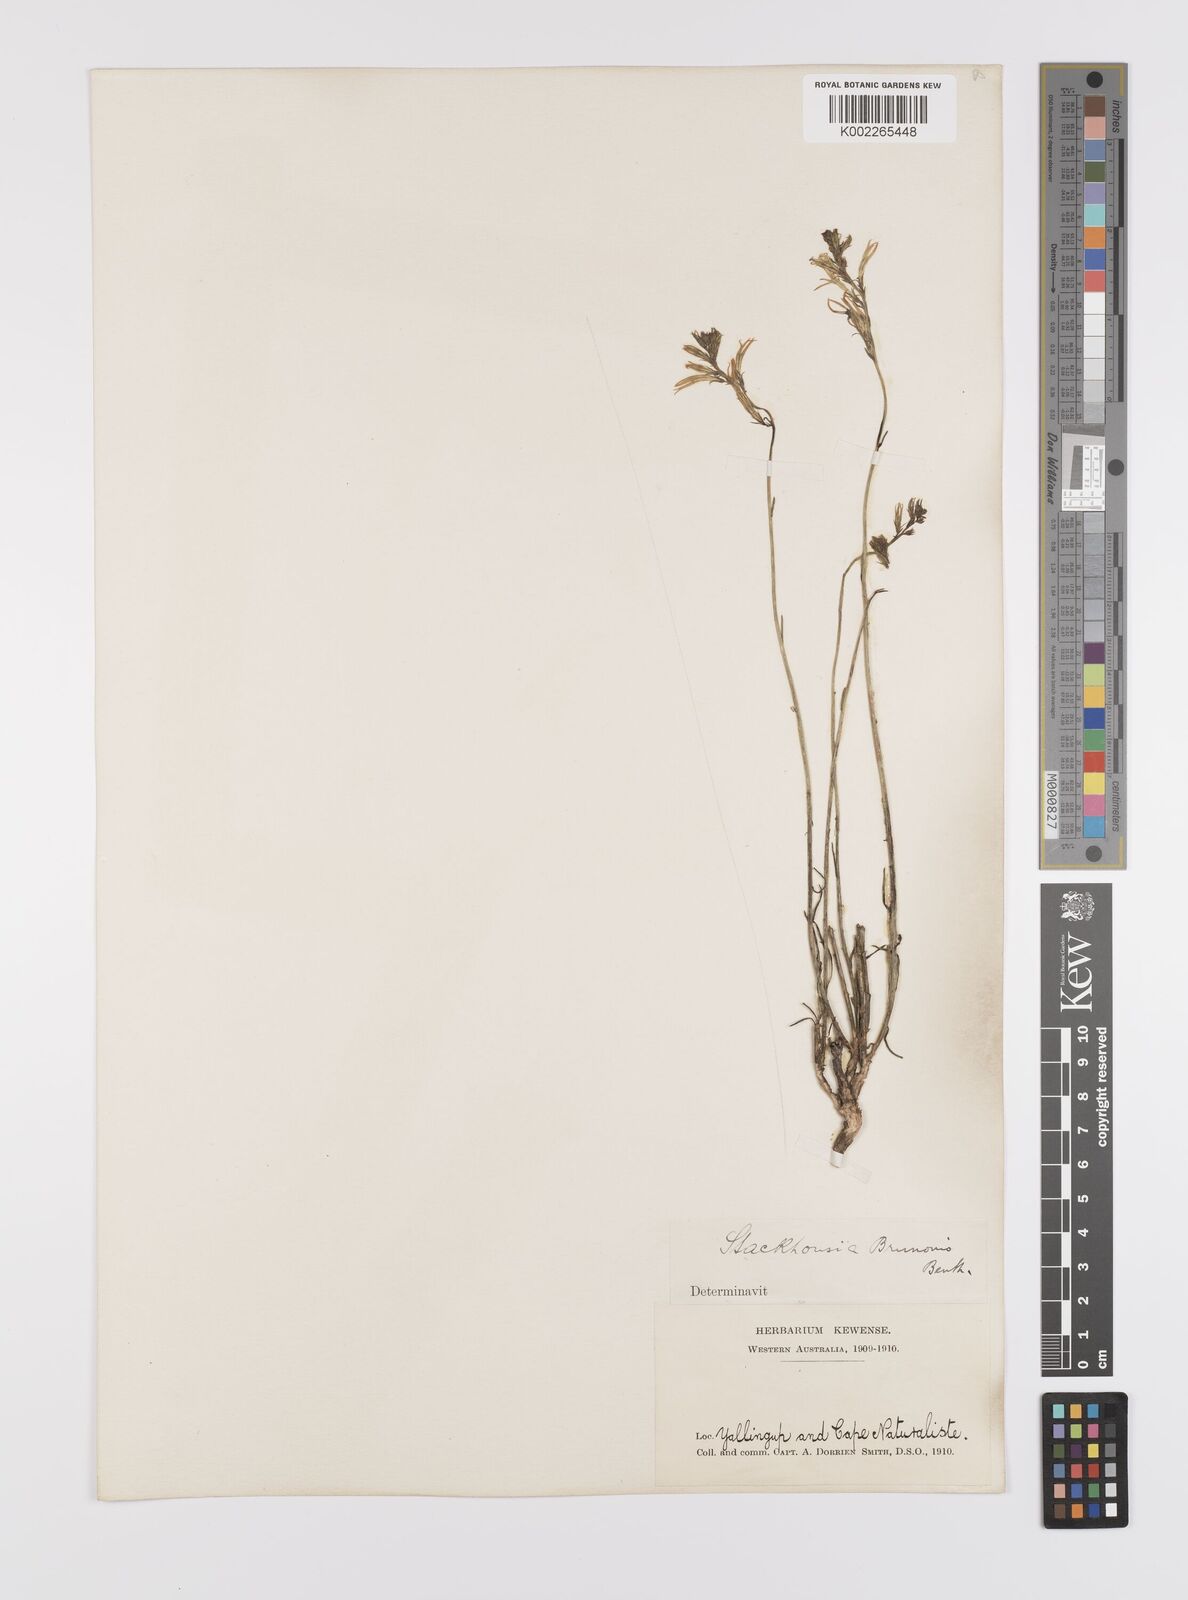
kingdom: Plantae
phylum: Tracheophyta
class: Magnoliopsida
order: Celastrales
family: Celastraceae
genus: Tripterococcus
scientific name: Tripterococcus brunonis
